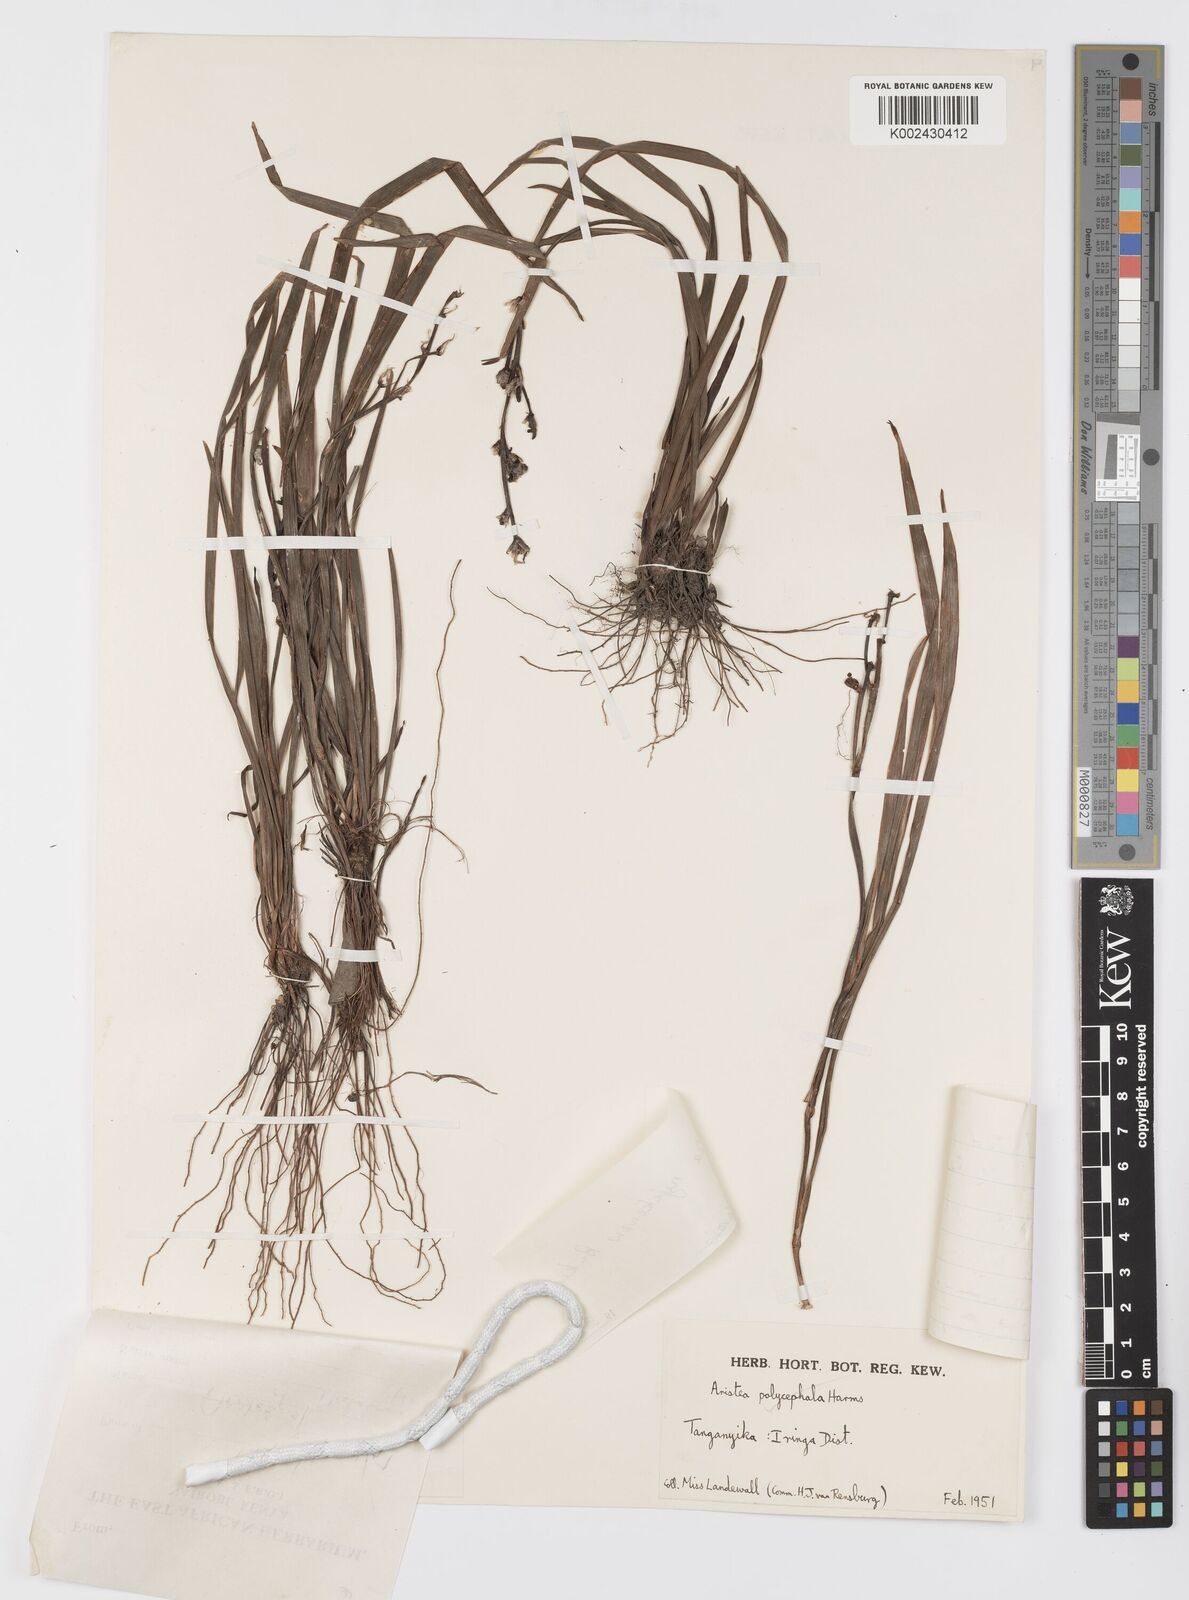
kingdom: Plantae
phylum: Tracheophyta
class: Liliopsida
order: Asparagales
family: Iridaceae
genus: Aristea
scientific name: Aristea nyikensis
